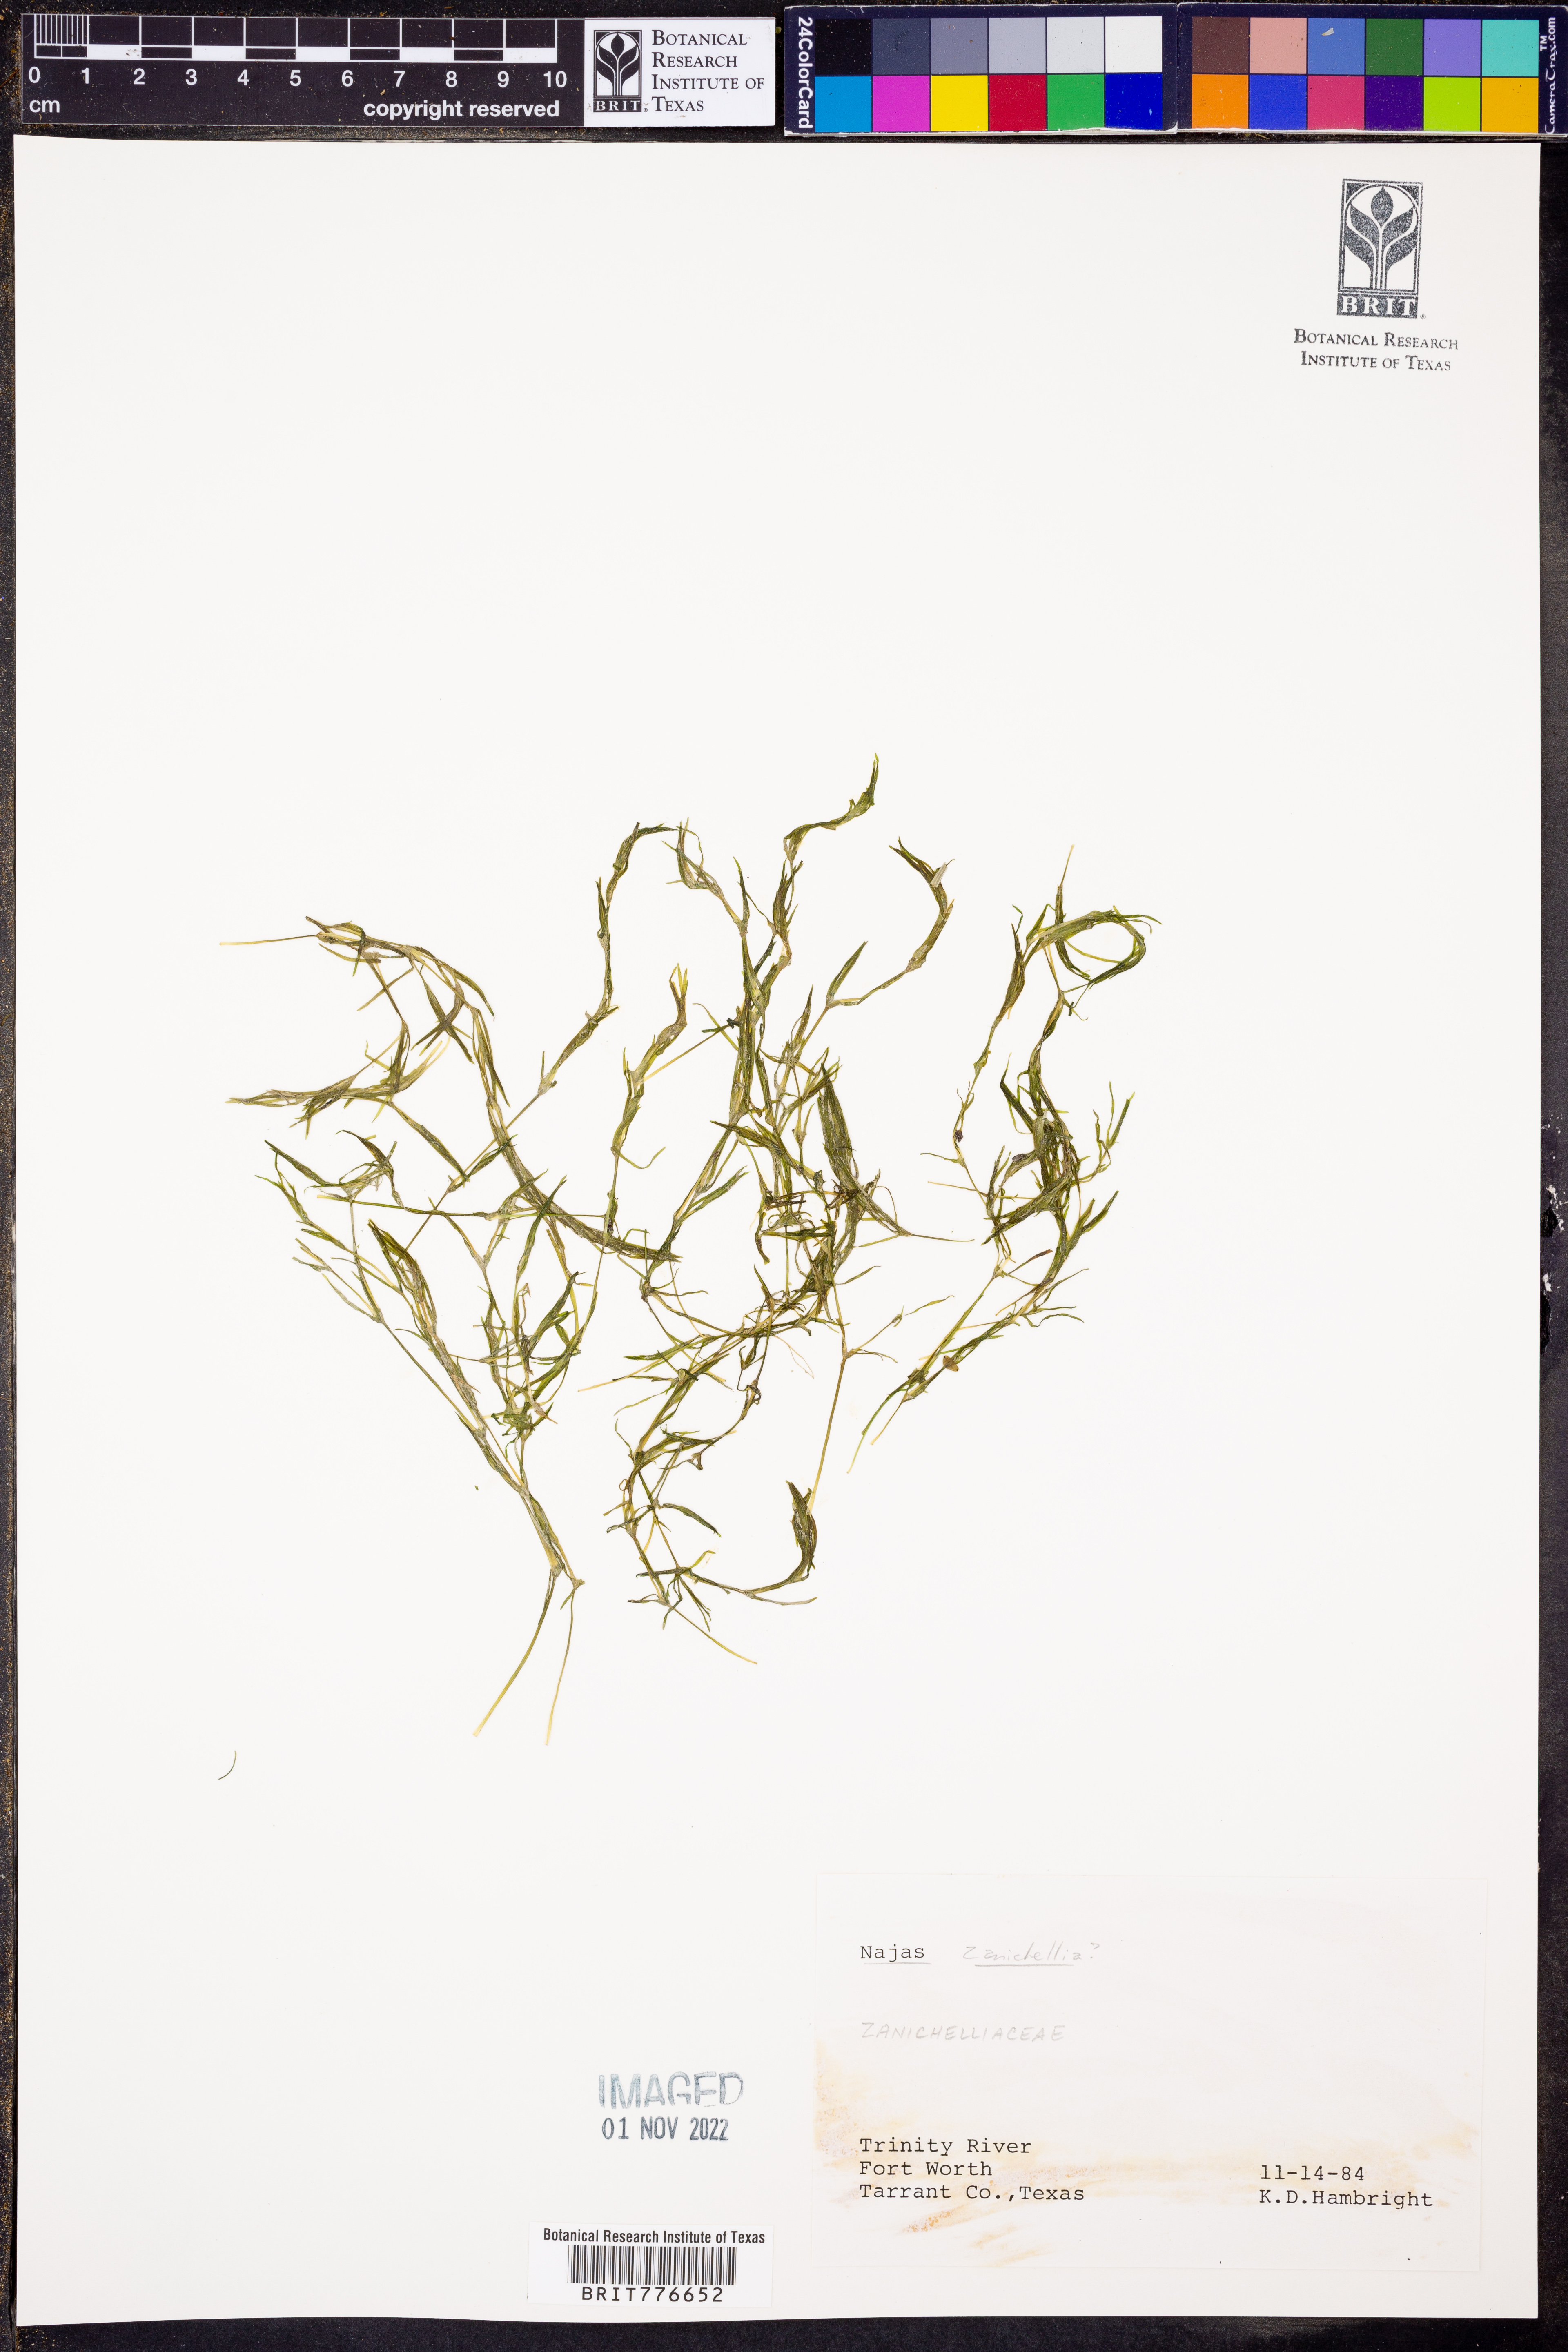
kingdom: Plantae
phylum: Tracheophyta
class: Liliopsida
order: Alismatales
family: Hydrocharitaceae
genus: Najas
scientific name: Najas
